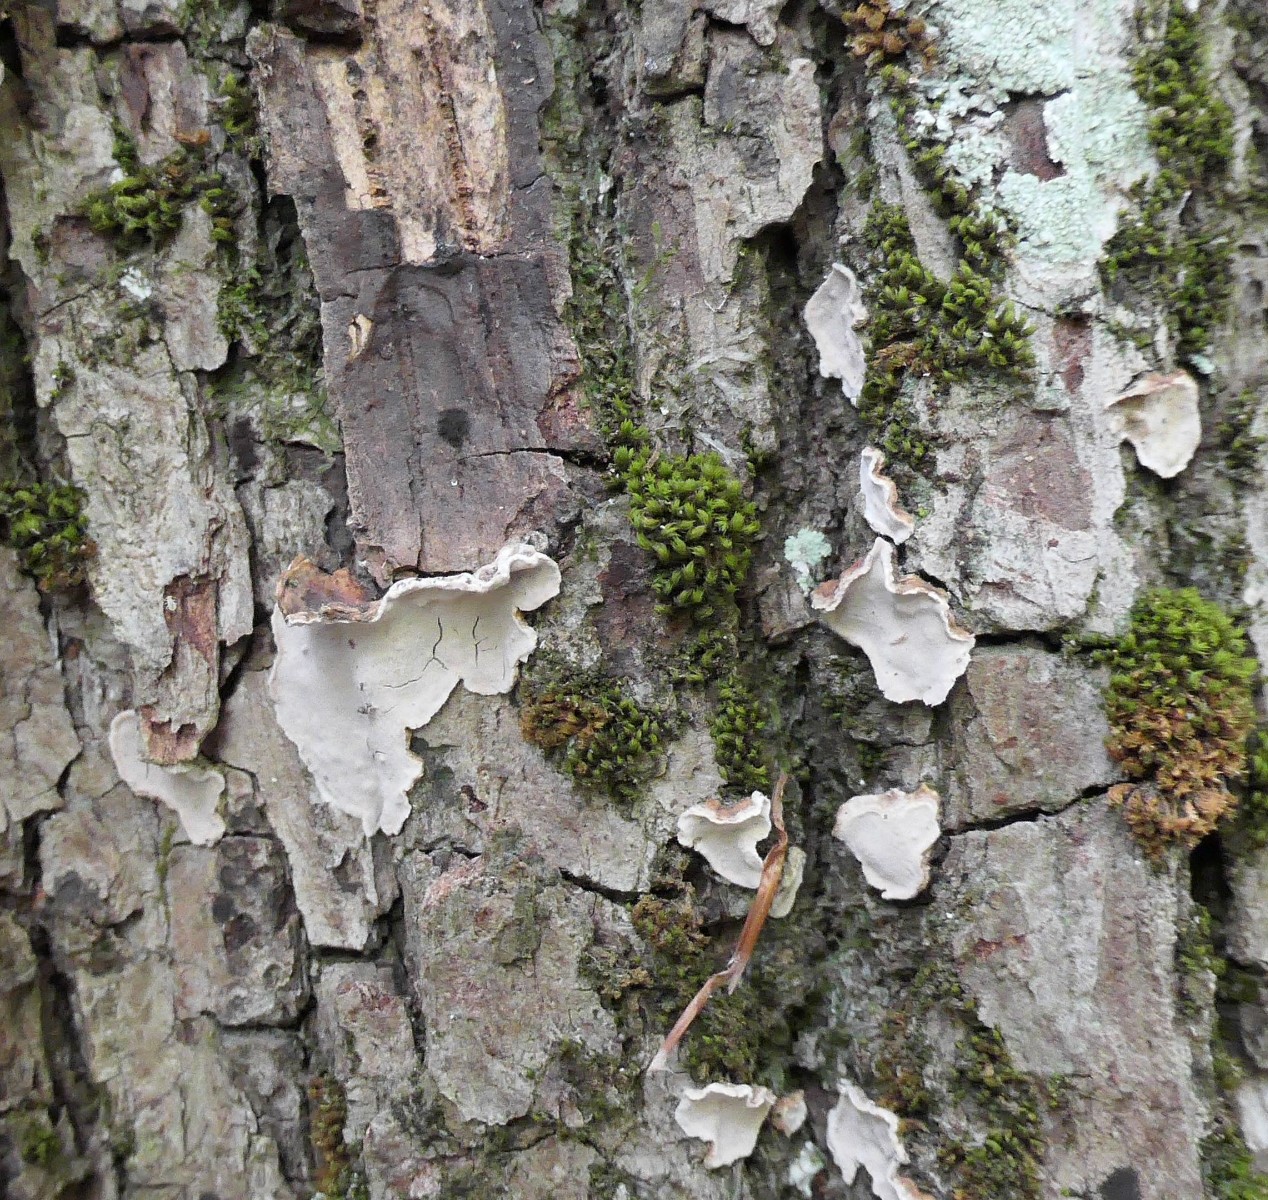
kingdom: Fungi
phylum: Basidiomycota
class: Agaricomycetes
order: Russulales
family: Stereaceae
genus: Aleurodiscus
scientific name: Aleurodiscus disciformis
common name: hvidlig skiveskorpe
